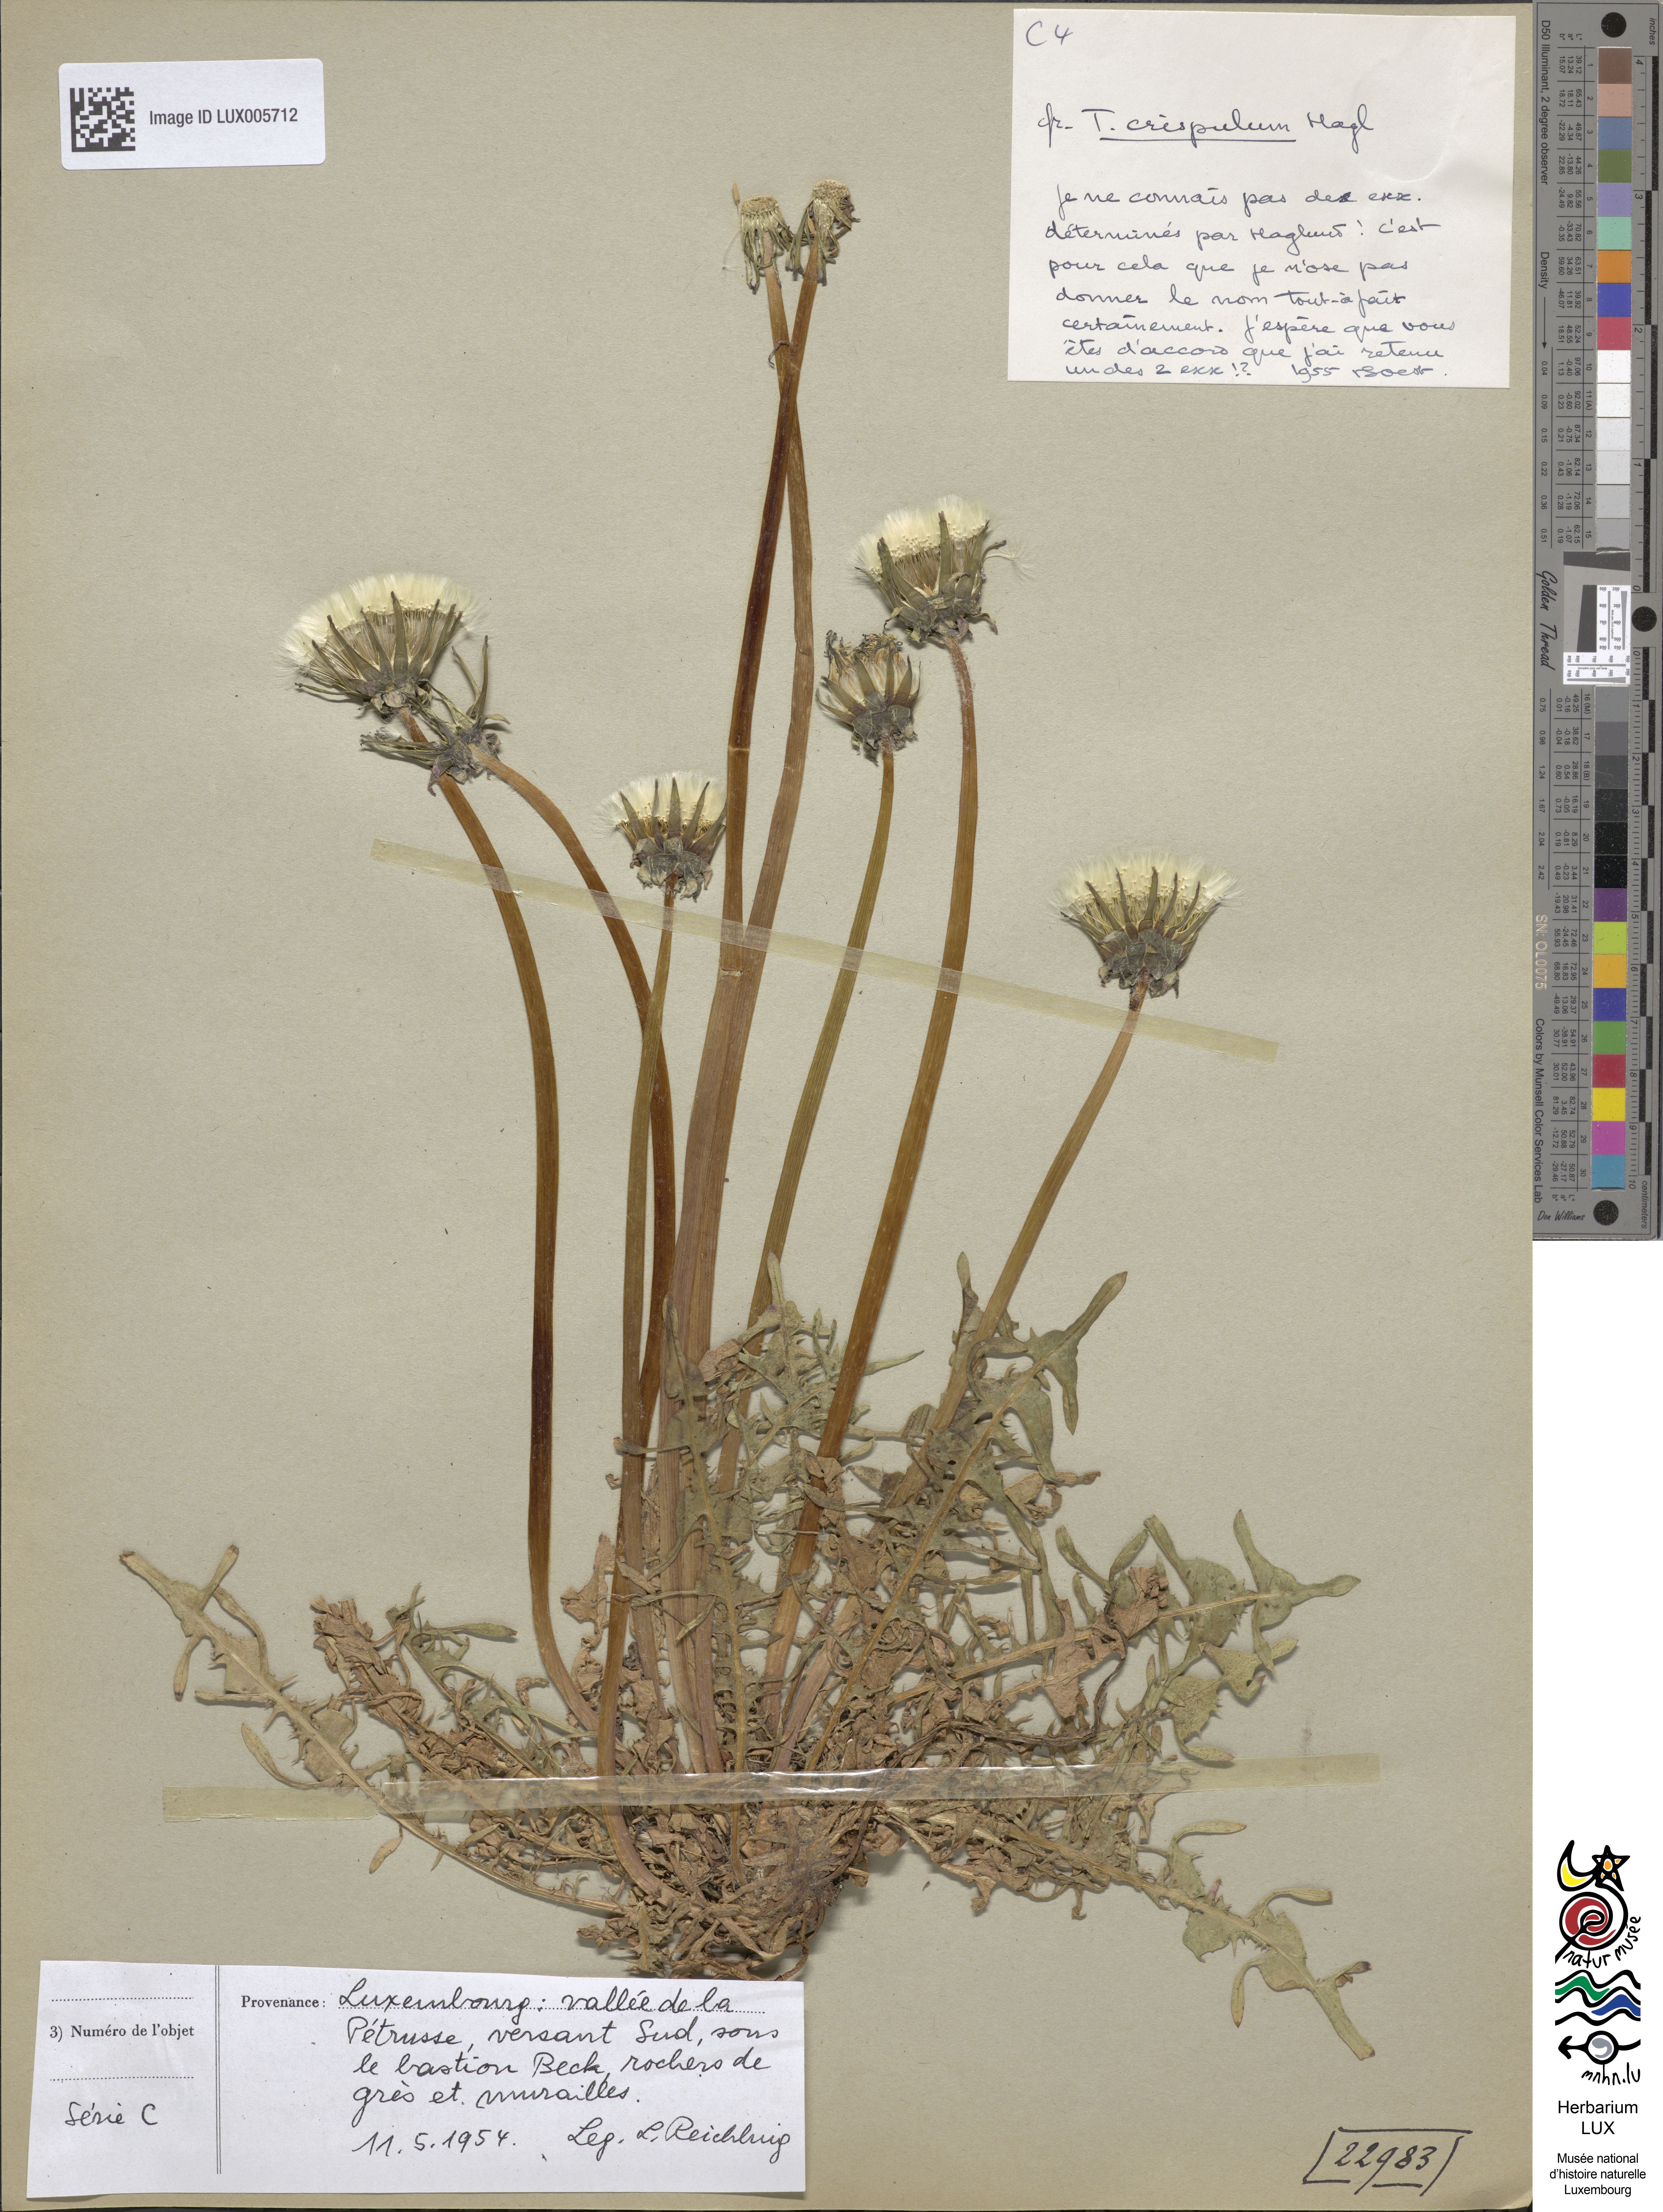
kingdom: Plantae
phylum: Tracheophyta
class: Magnoliopsida
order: Asterales
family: Asteraceae
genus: Taraxacum
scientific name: Taraxacum crispulum
